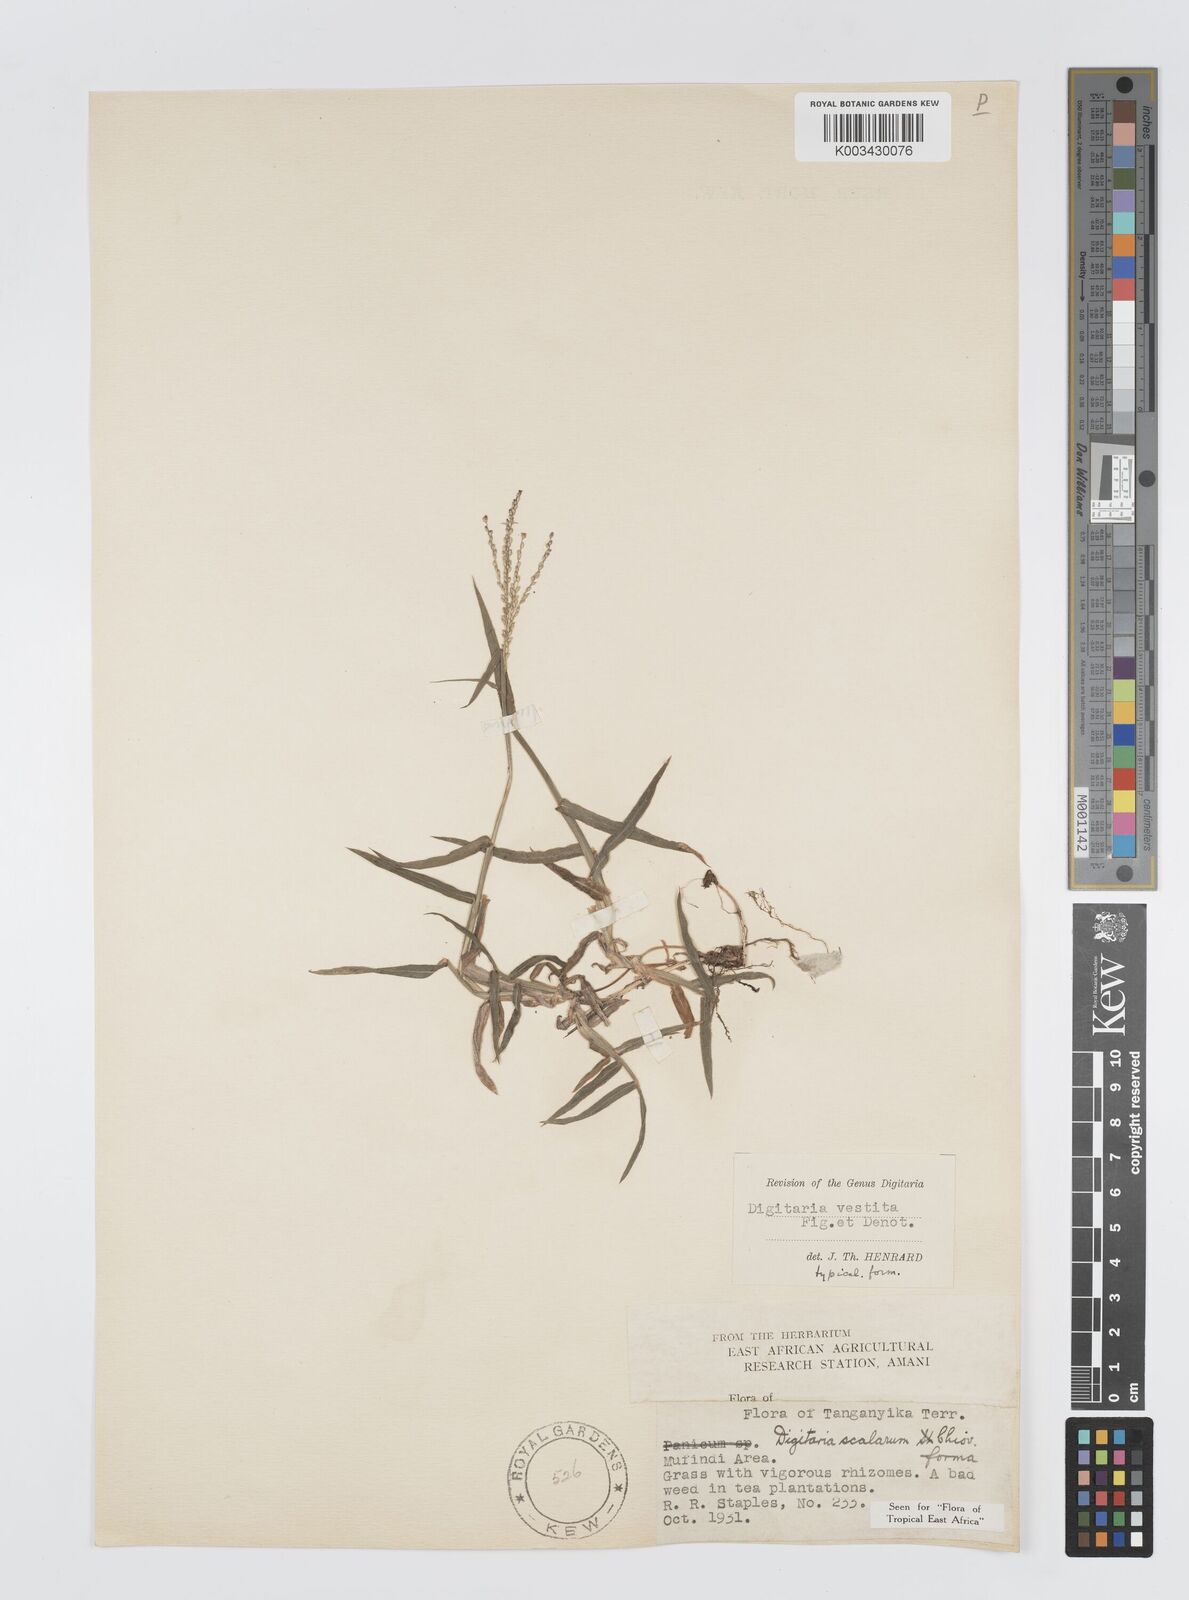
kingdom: Plantae
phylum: Tracheophyta
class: Liliopsida
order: Poales
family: Poaceae
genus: Digitaria
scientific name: Digitaria abyssinica
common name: African couchgrass
